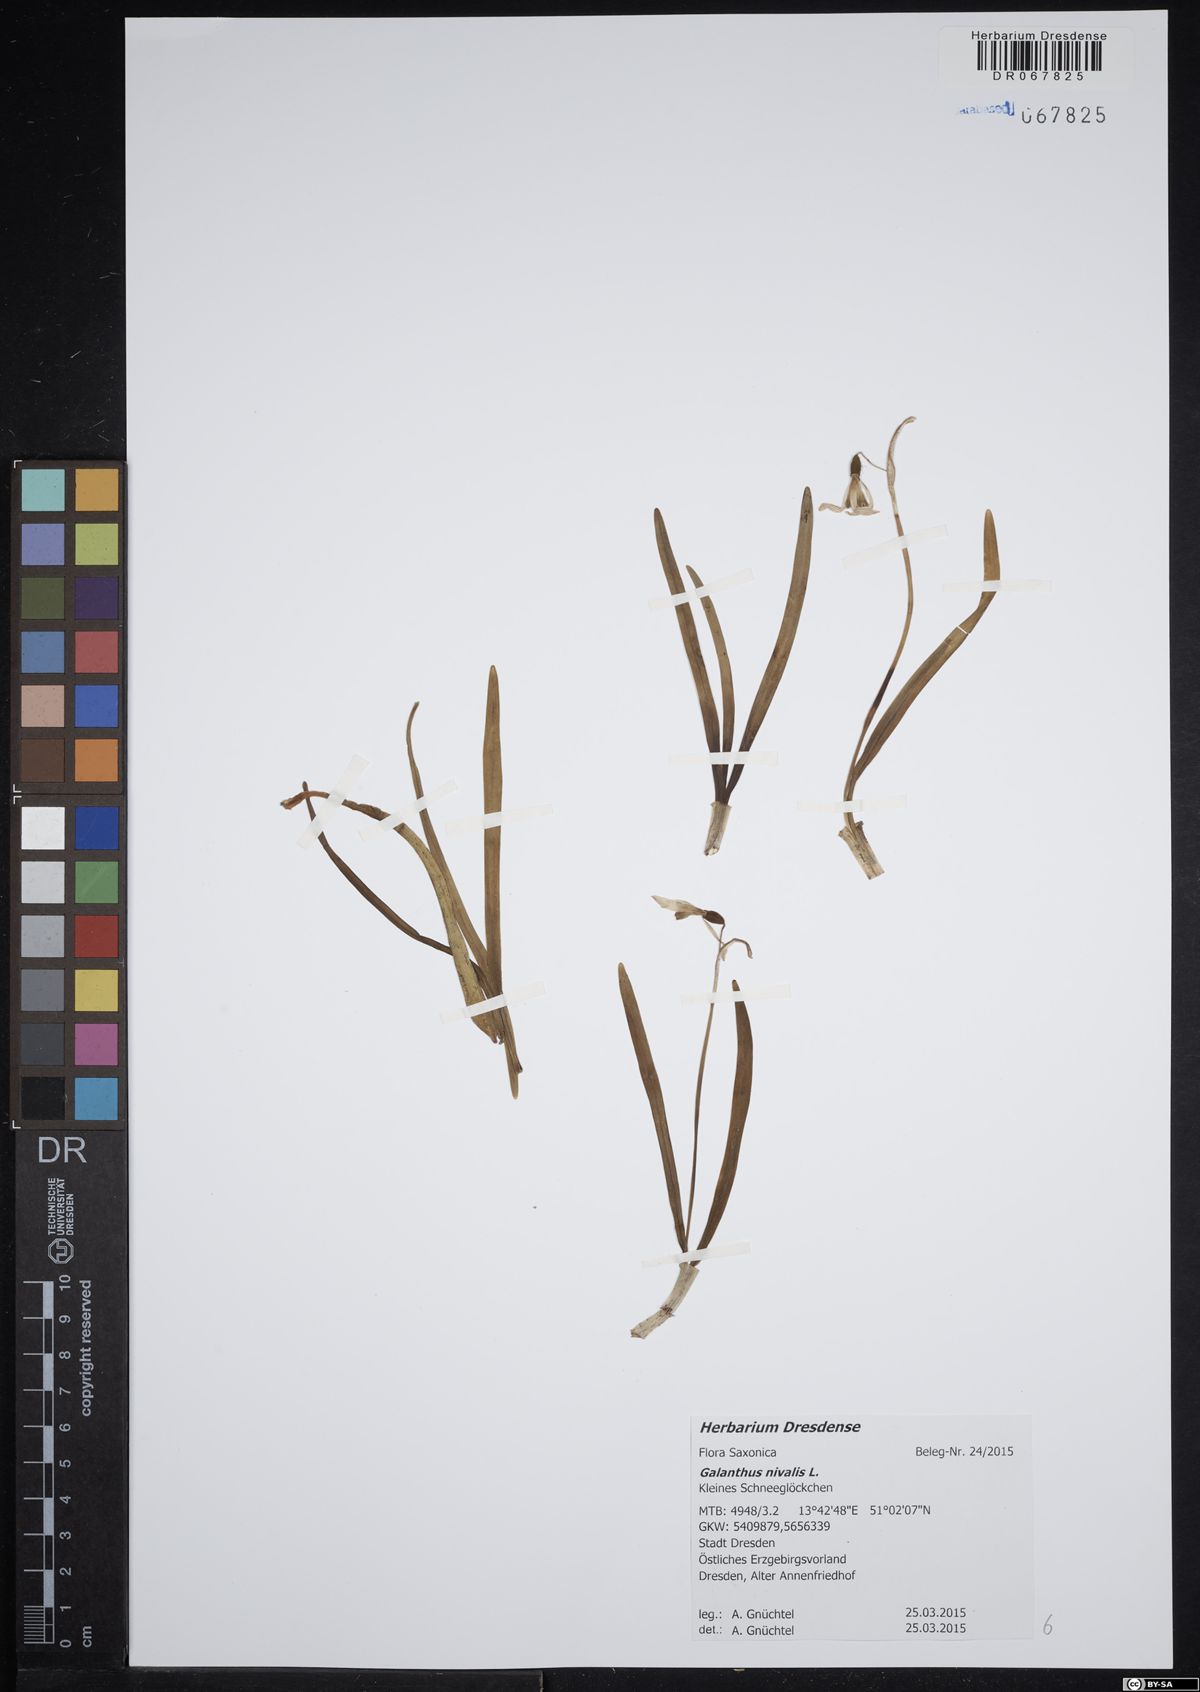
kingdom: Plantae
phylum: Tracheophyta
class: Liliopsida
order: Asparagales
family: Amaryllidaceae
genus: Galanthus
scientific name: Galanthus nivalis
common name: Snowdrop
